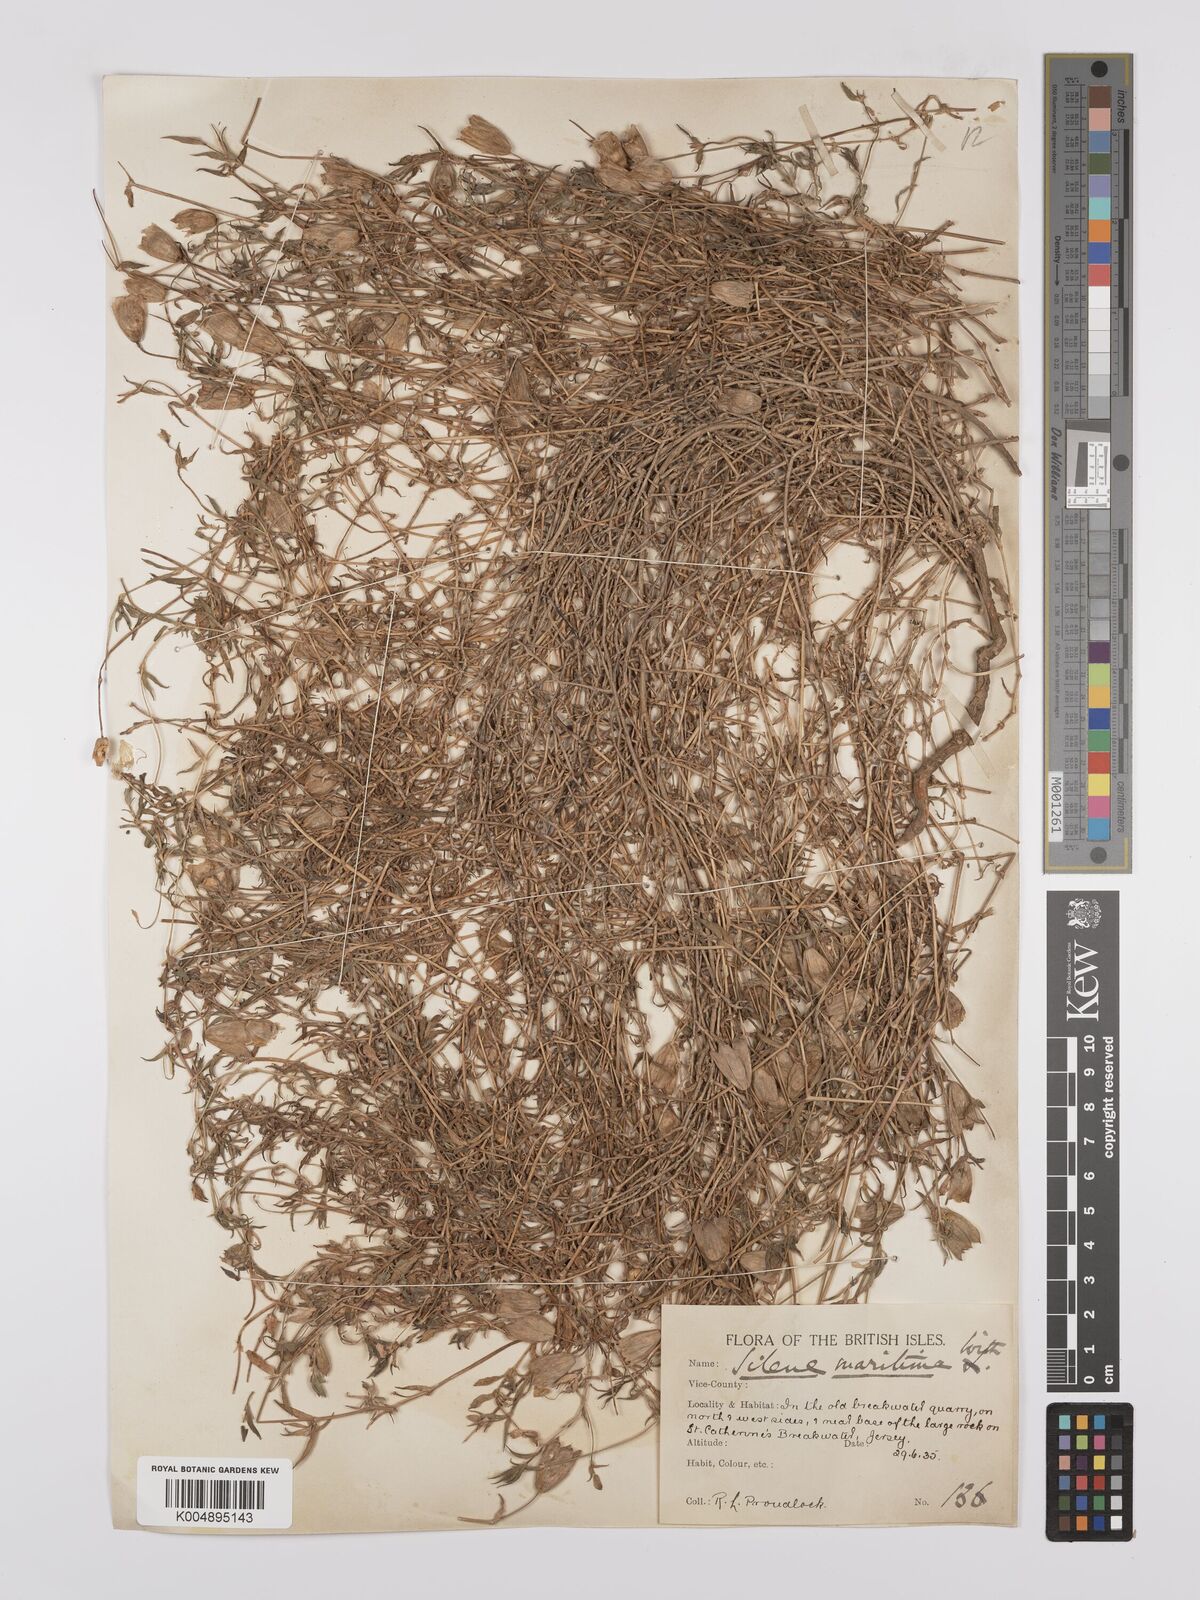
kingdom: Plantae
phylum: Tracheophyta
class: Magnoliopsida
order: Caryophyllales
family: Caryophyllaceae
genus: Silene
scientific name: Silene uniflora
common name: Sea campion
